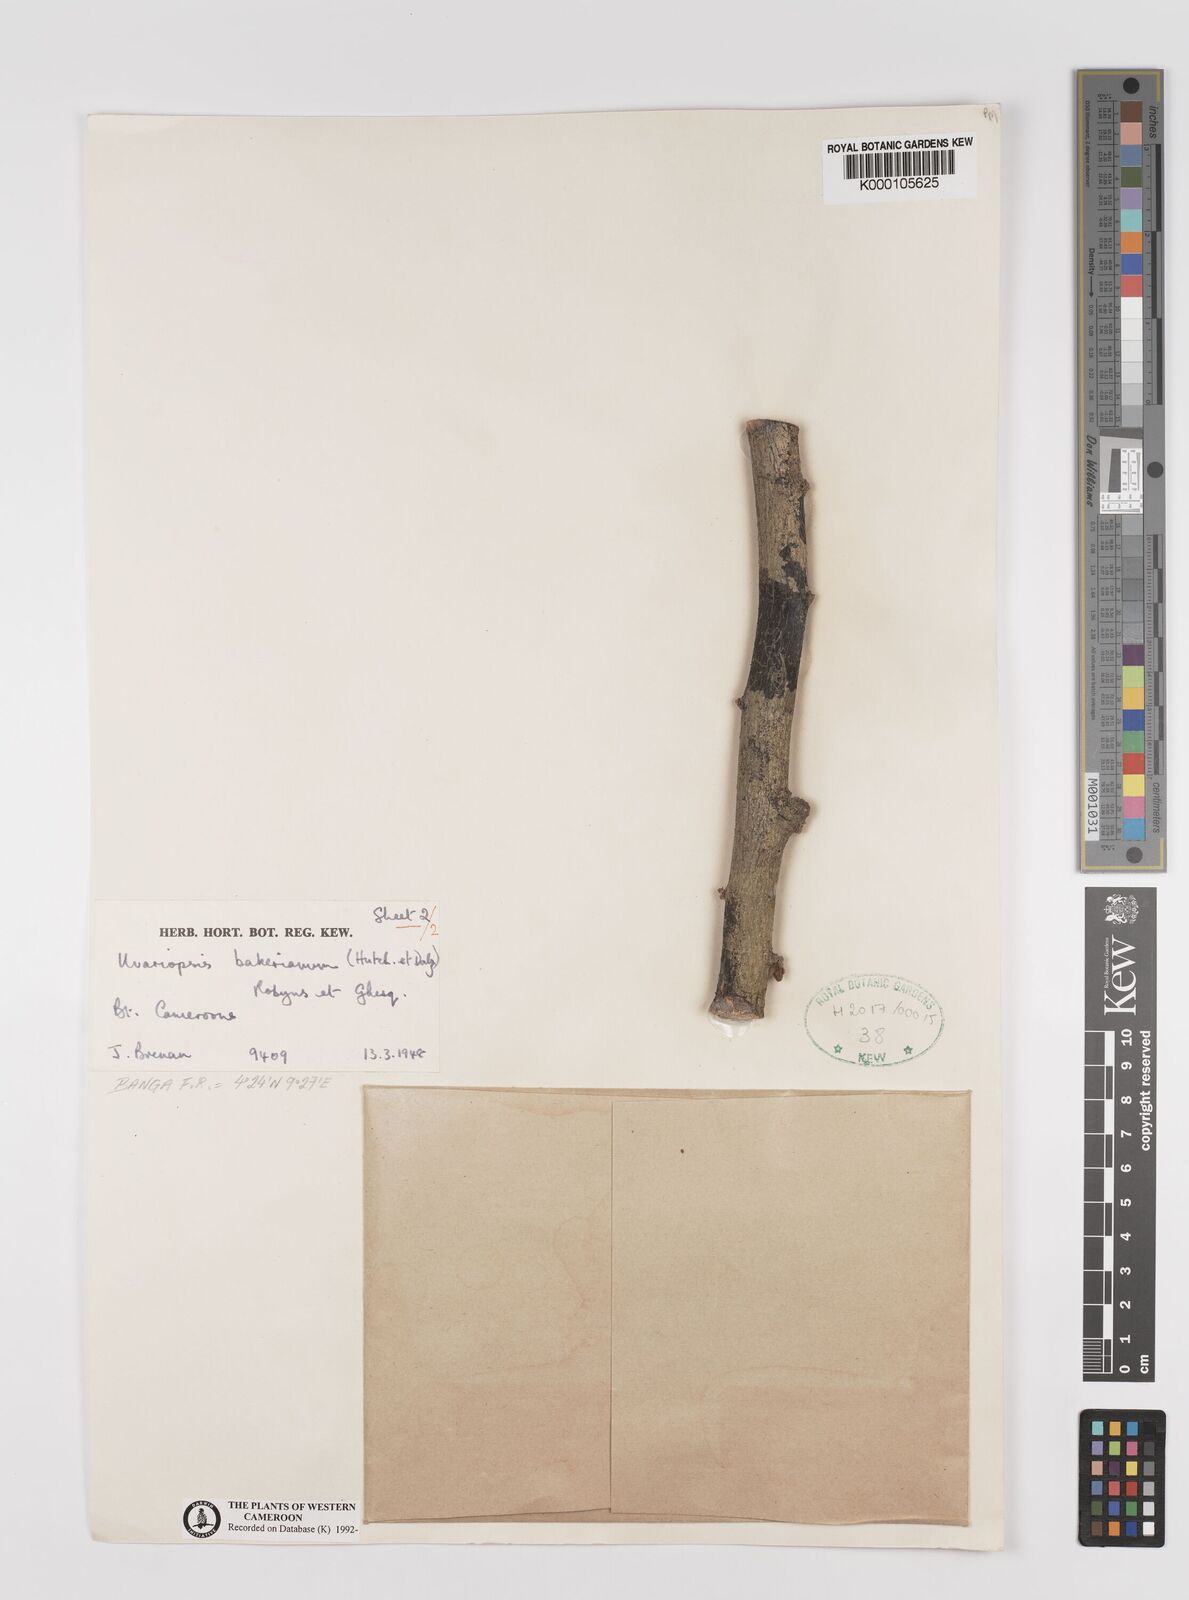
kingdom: Plantae
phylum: Tracheophyta
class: Magnoliopsida
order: Magnoliales
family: Annonaceae
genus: Uvariopsis
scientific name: Uvariopsis bakeriana
